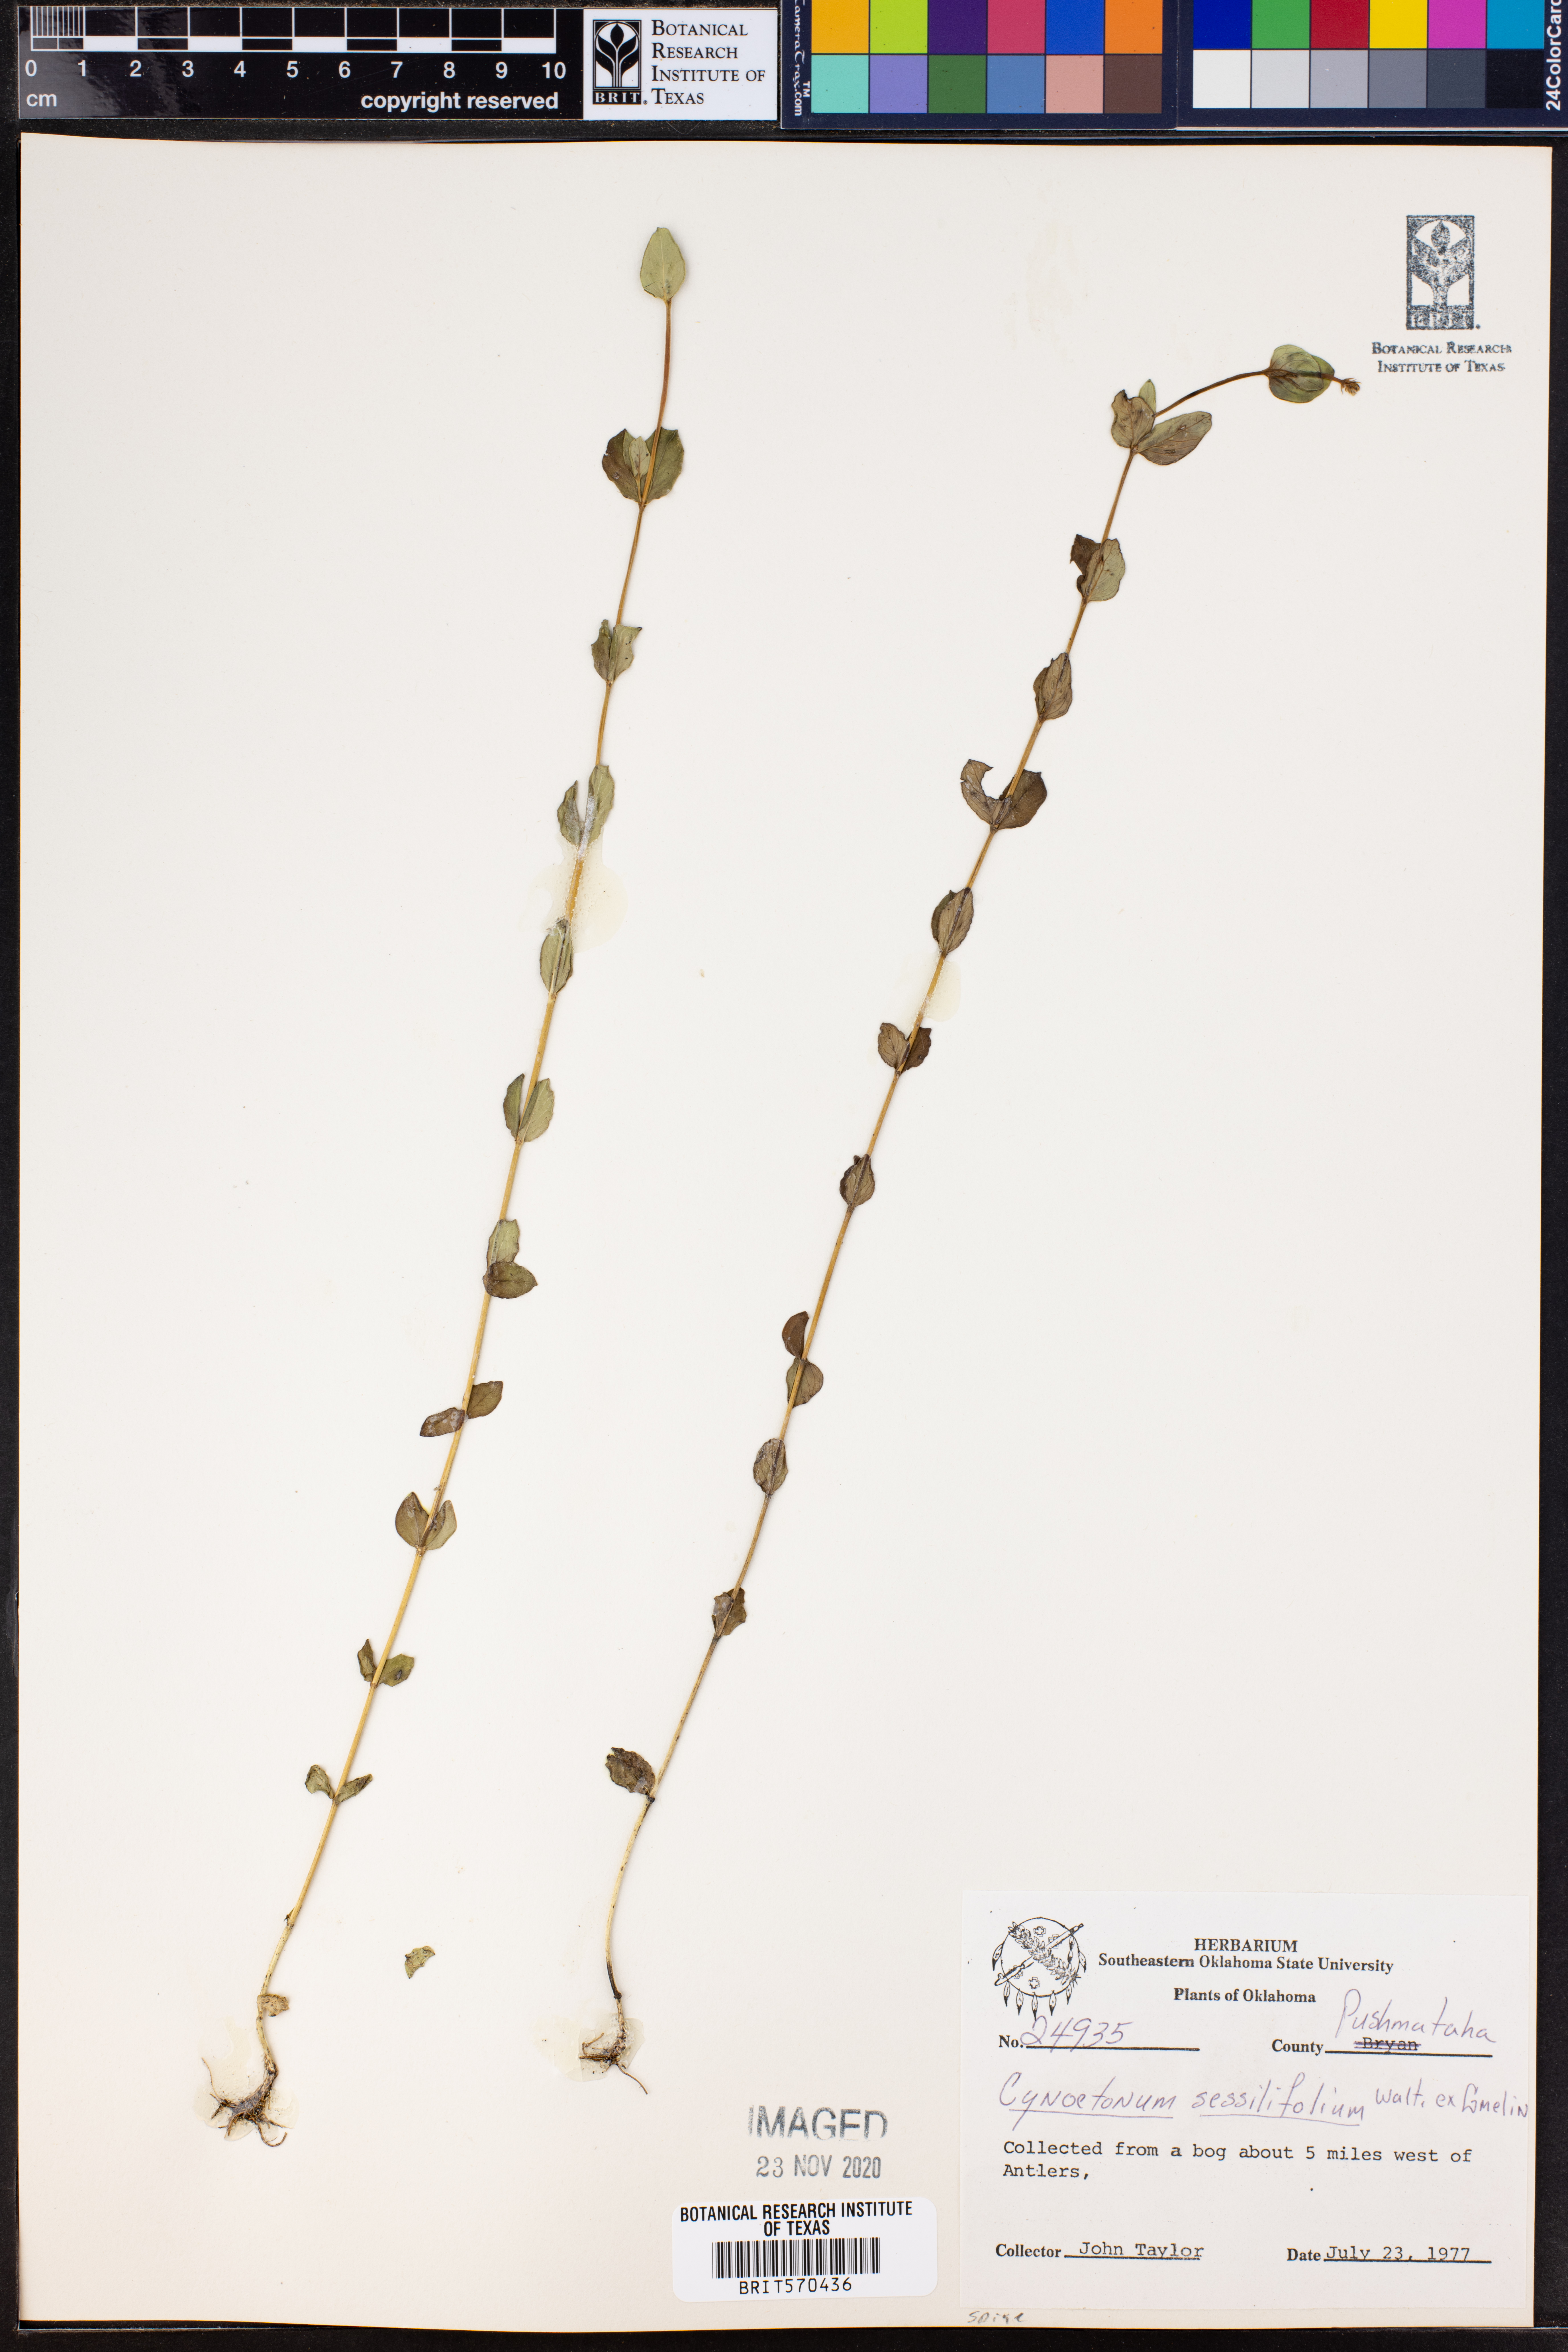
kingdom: Plantae
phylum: Tracheophyta
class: Magnoliopsida
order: Gentianales
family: Loganiaceae
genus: Mitreola
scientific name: Mitreola sessilifolia
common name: Swamp hornpod
